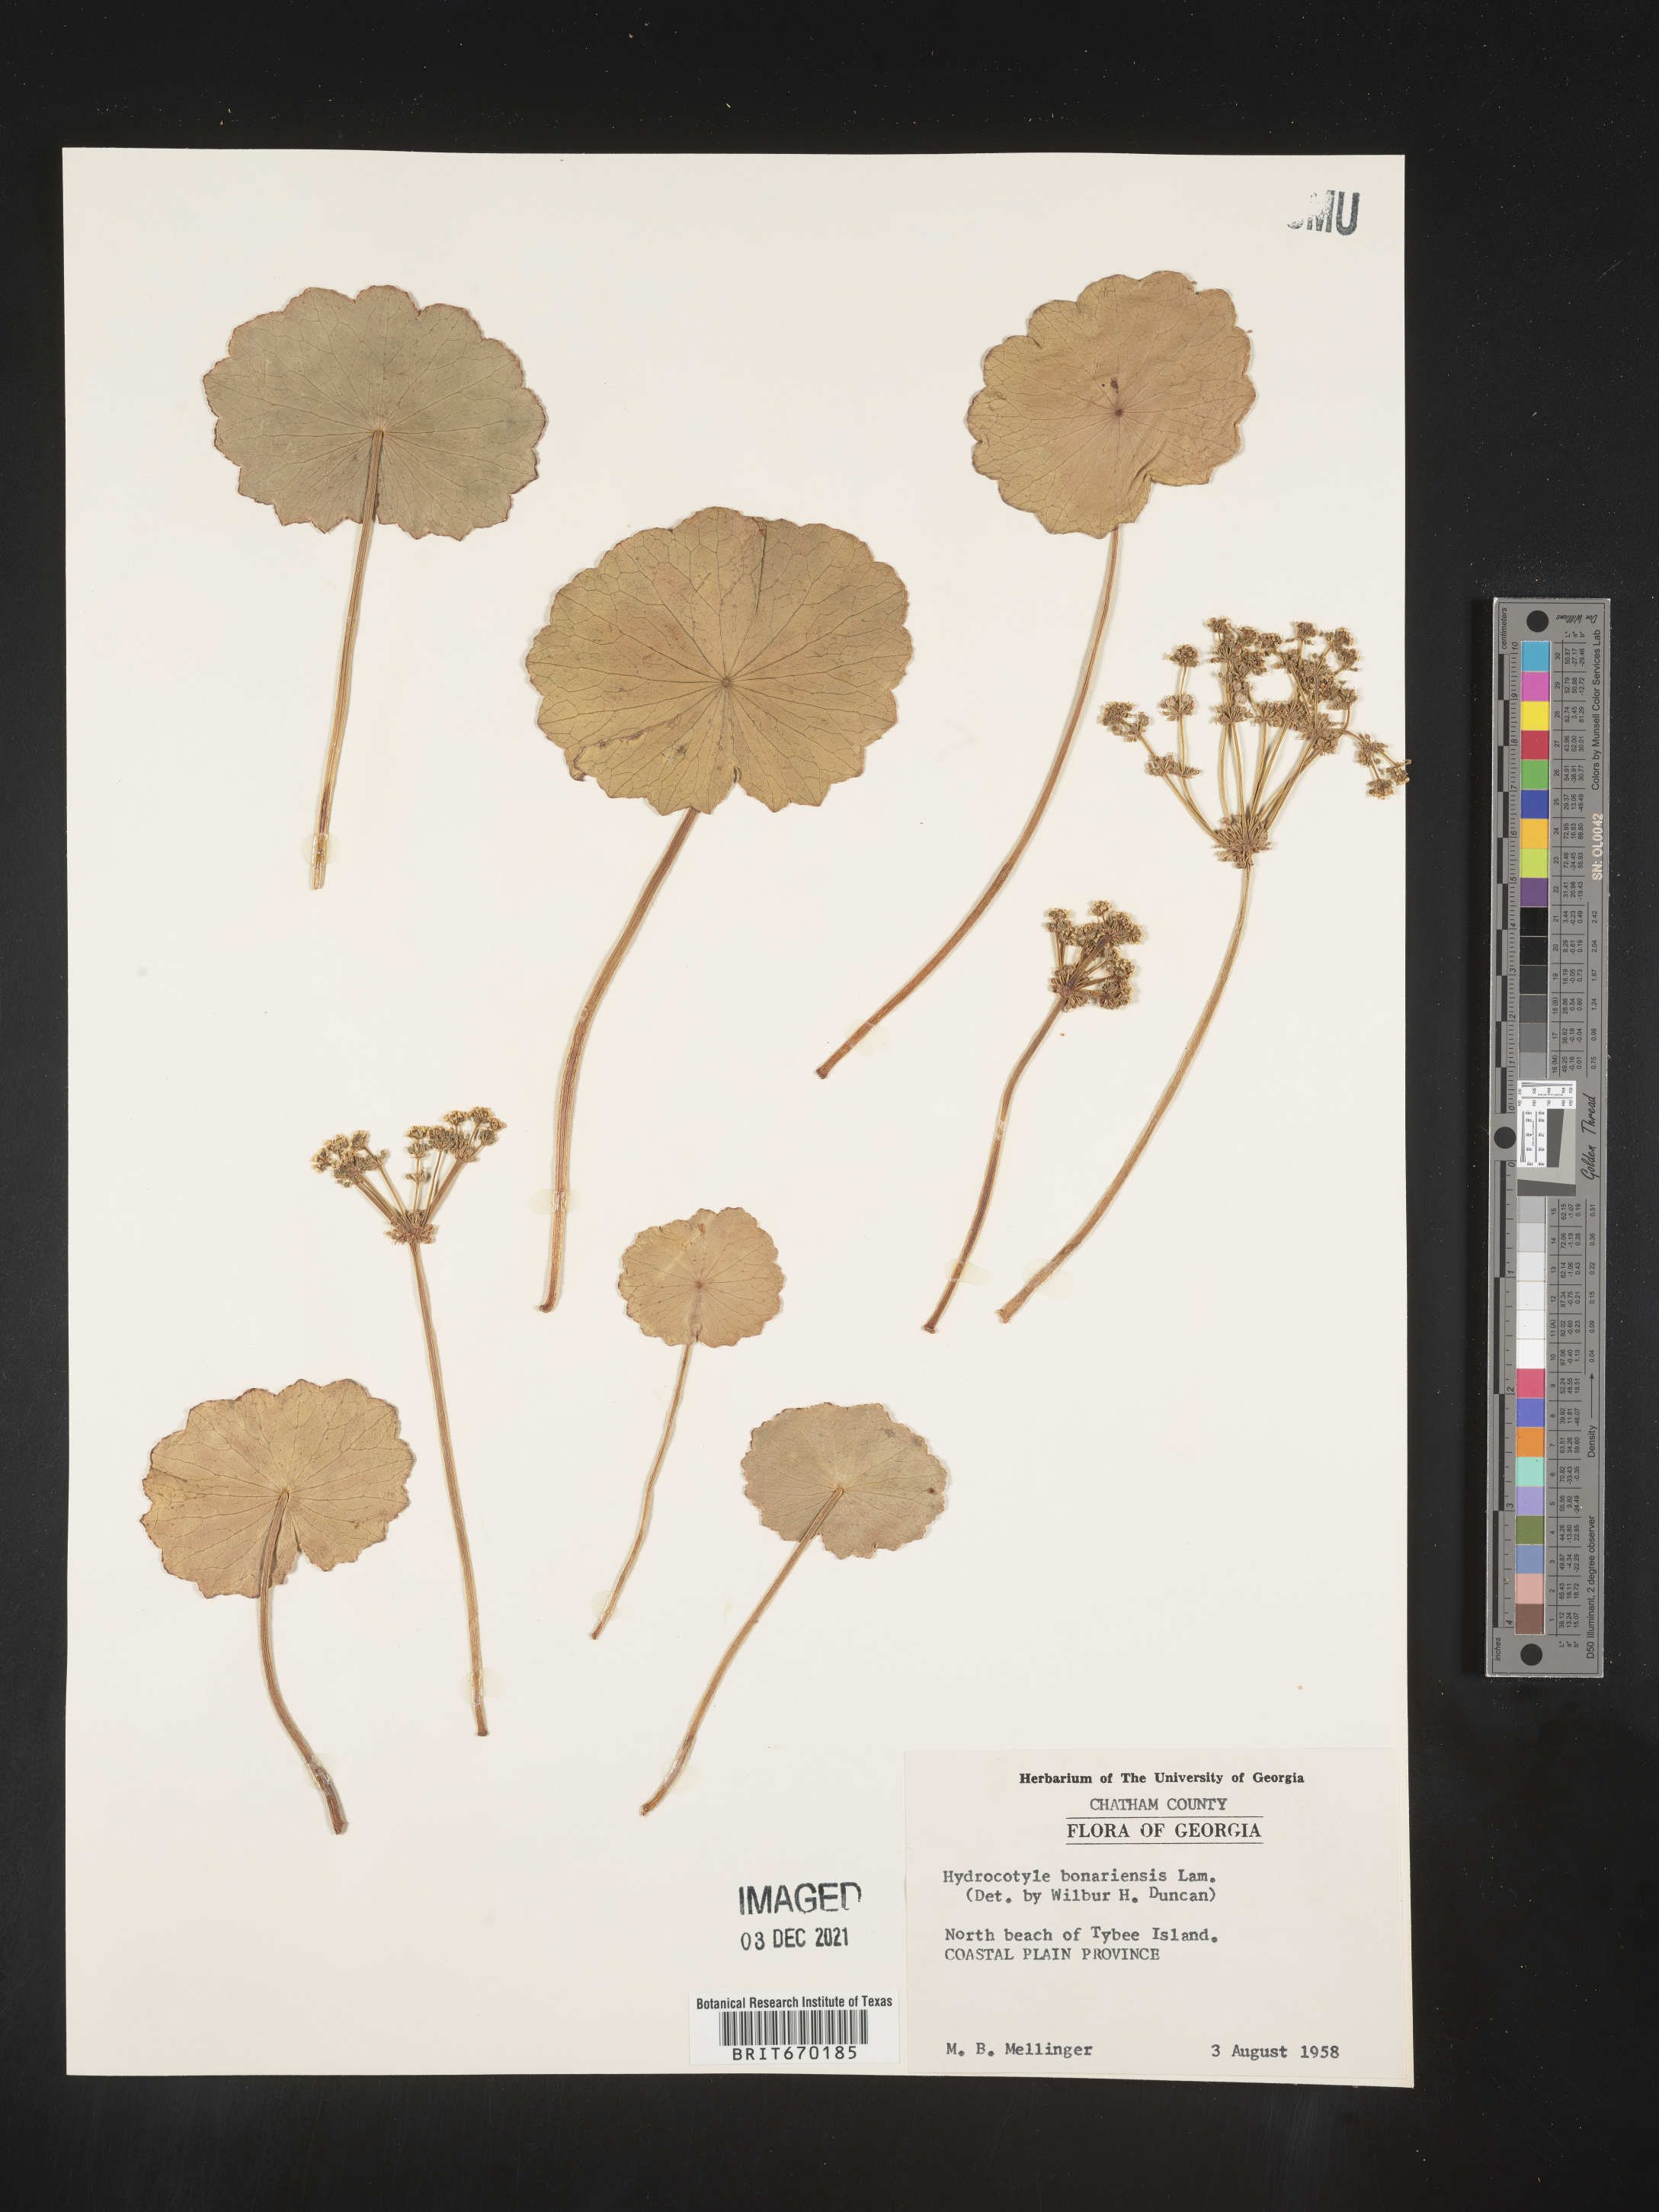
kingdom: Plantae
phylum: Tracheophyta
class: Magnoliopsida
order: Apiales
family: Araliaceae
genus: Hydrocotyle
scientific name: Hydrocotyle bonariensis
